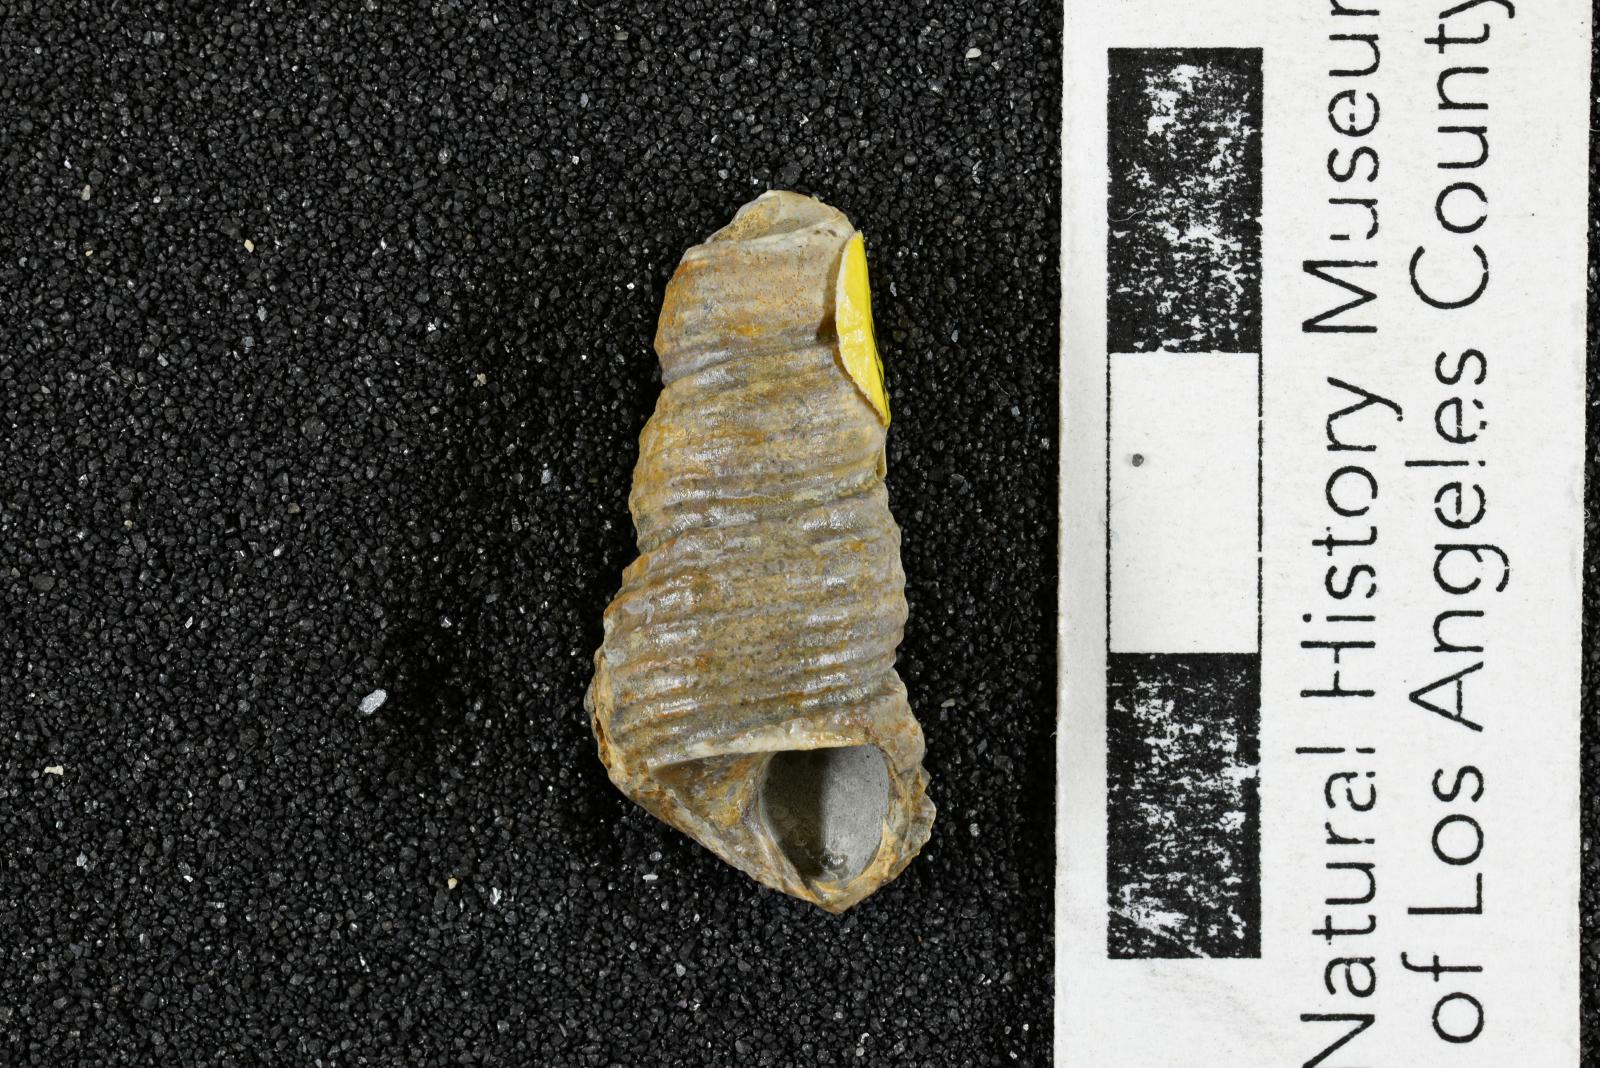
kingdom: Animalia
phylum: Mollusca
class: Gastropoda
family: Turritellidae
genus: Turritella
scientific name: Turritella packardi
